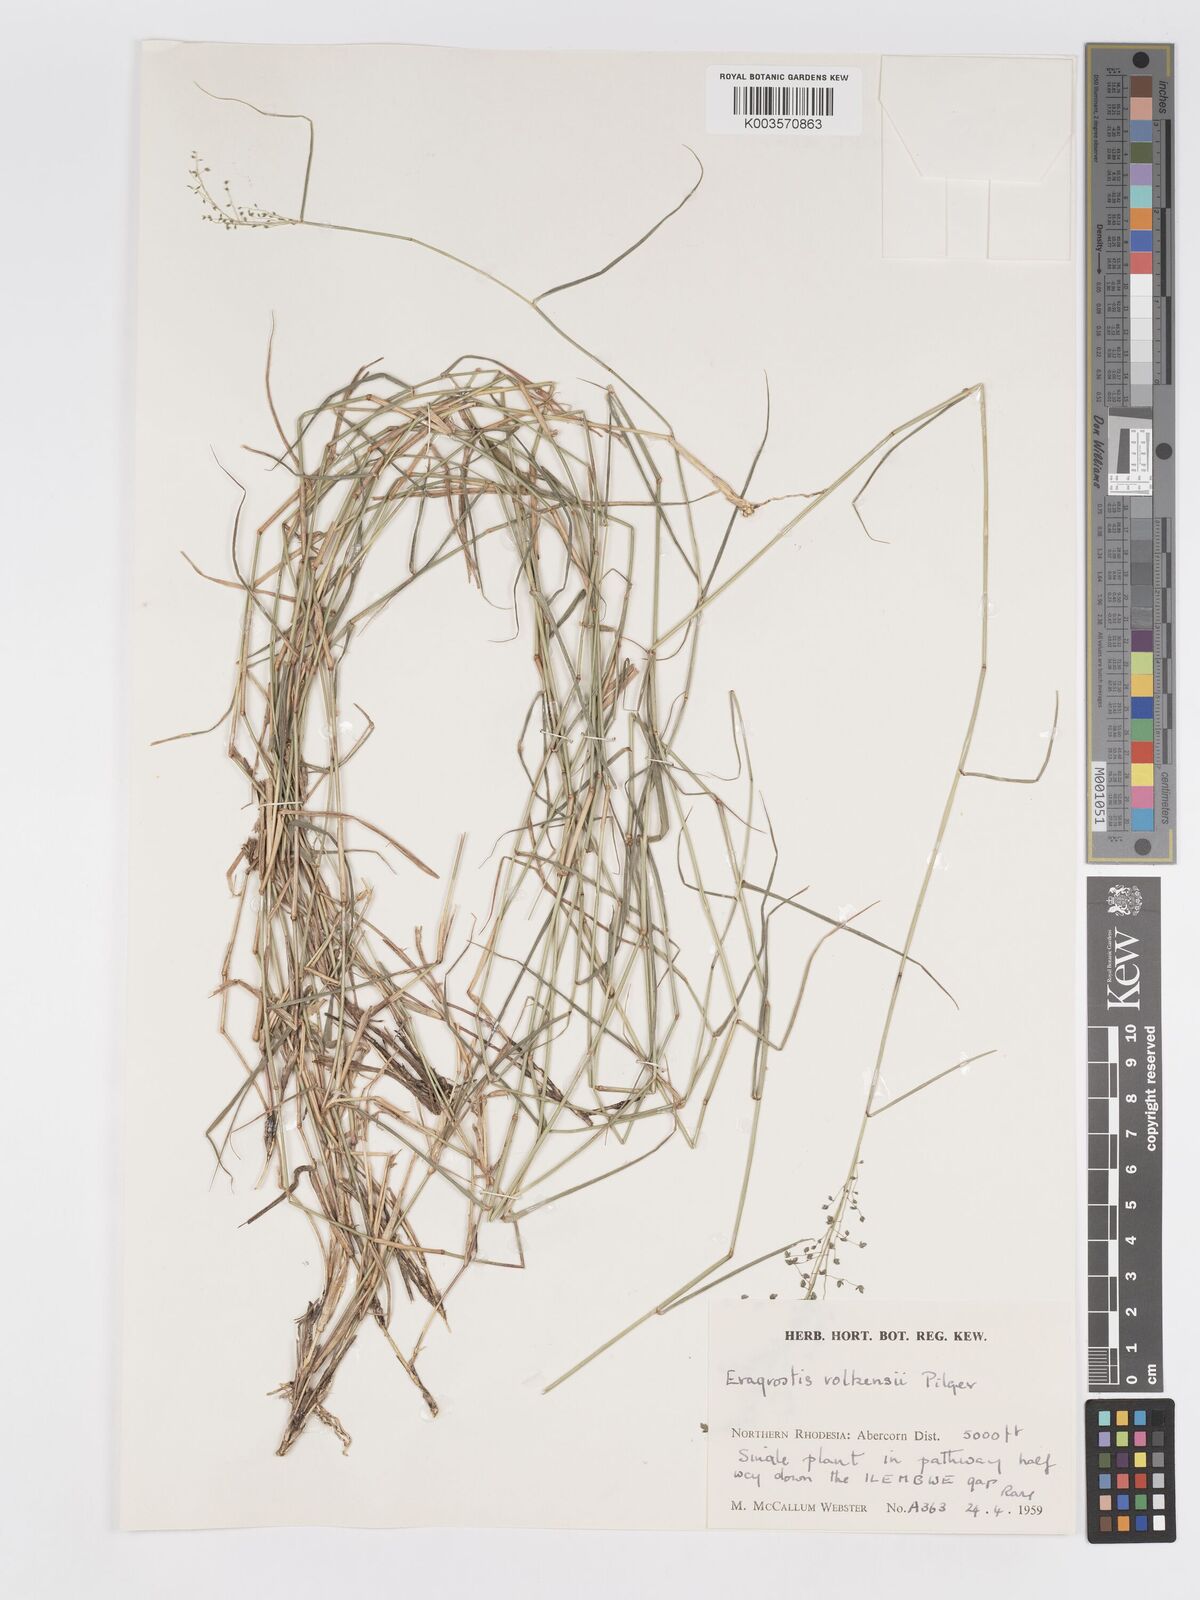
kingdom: Plantae
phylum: Tracheophyta
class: Liliopsida
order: Poales
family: Poaceae
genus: Eragrostis
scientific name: Eragrostis volkensii
